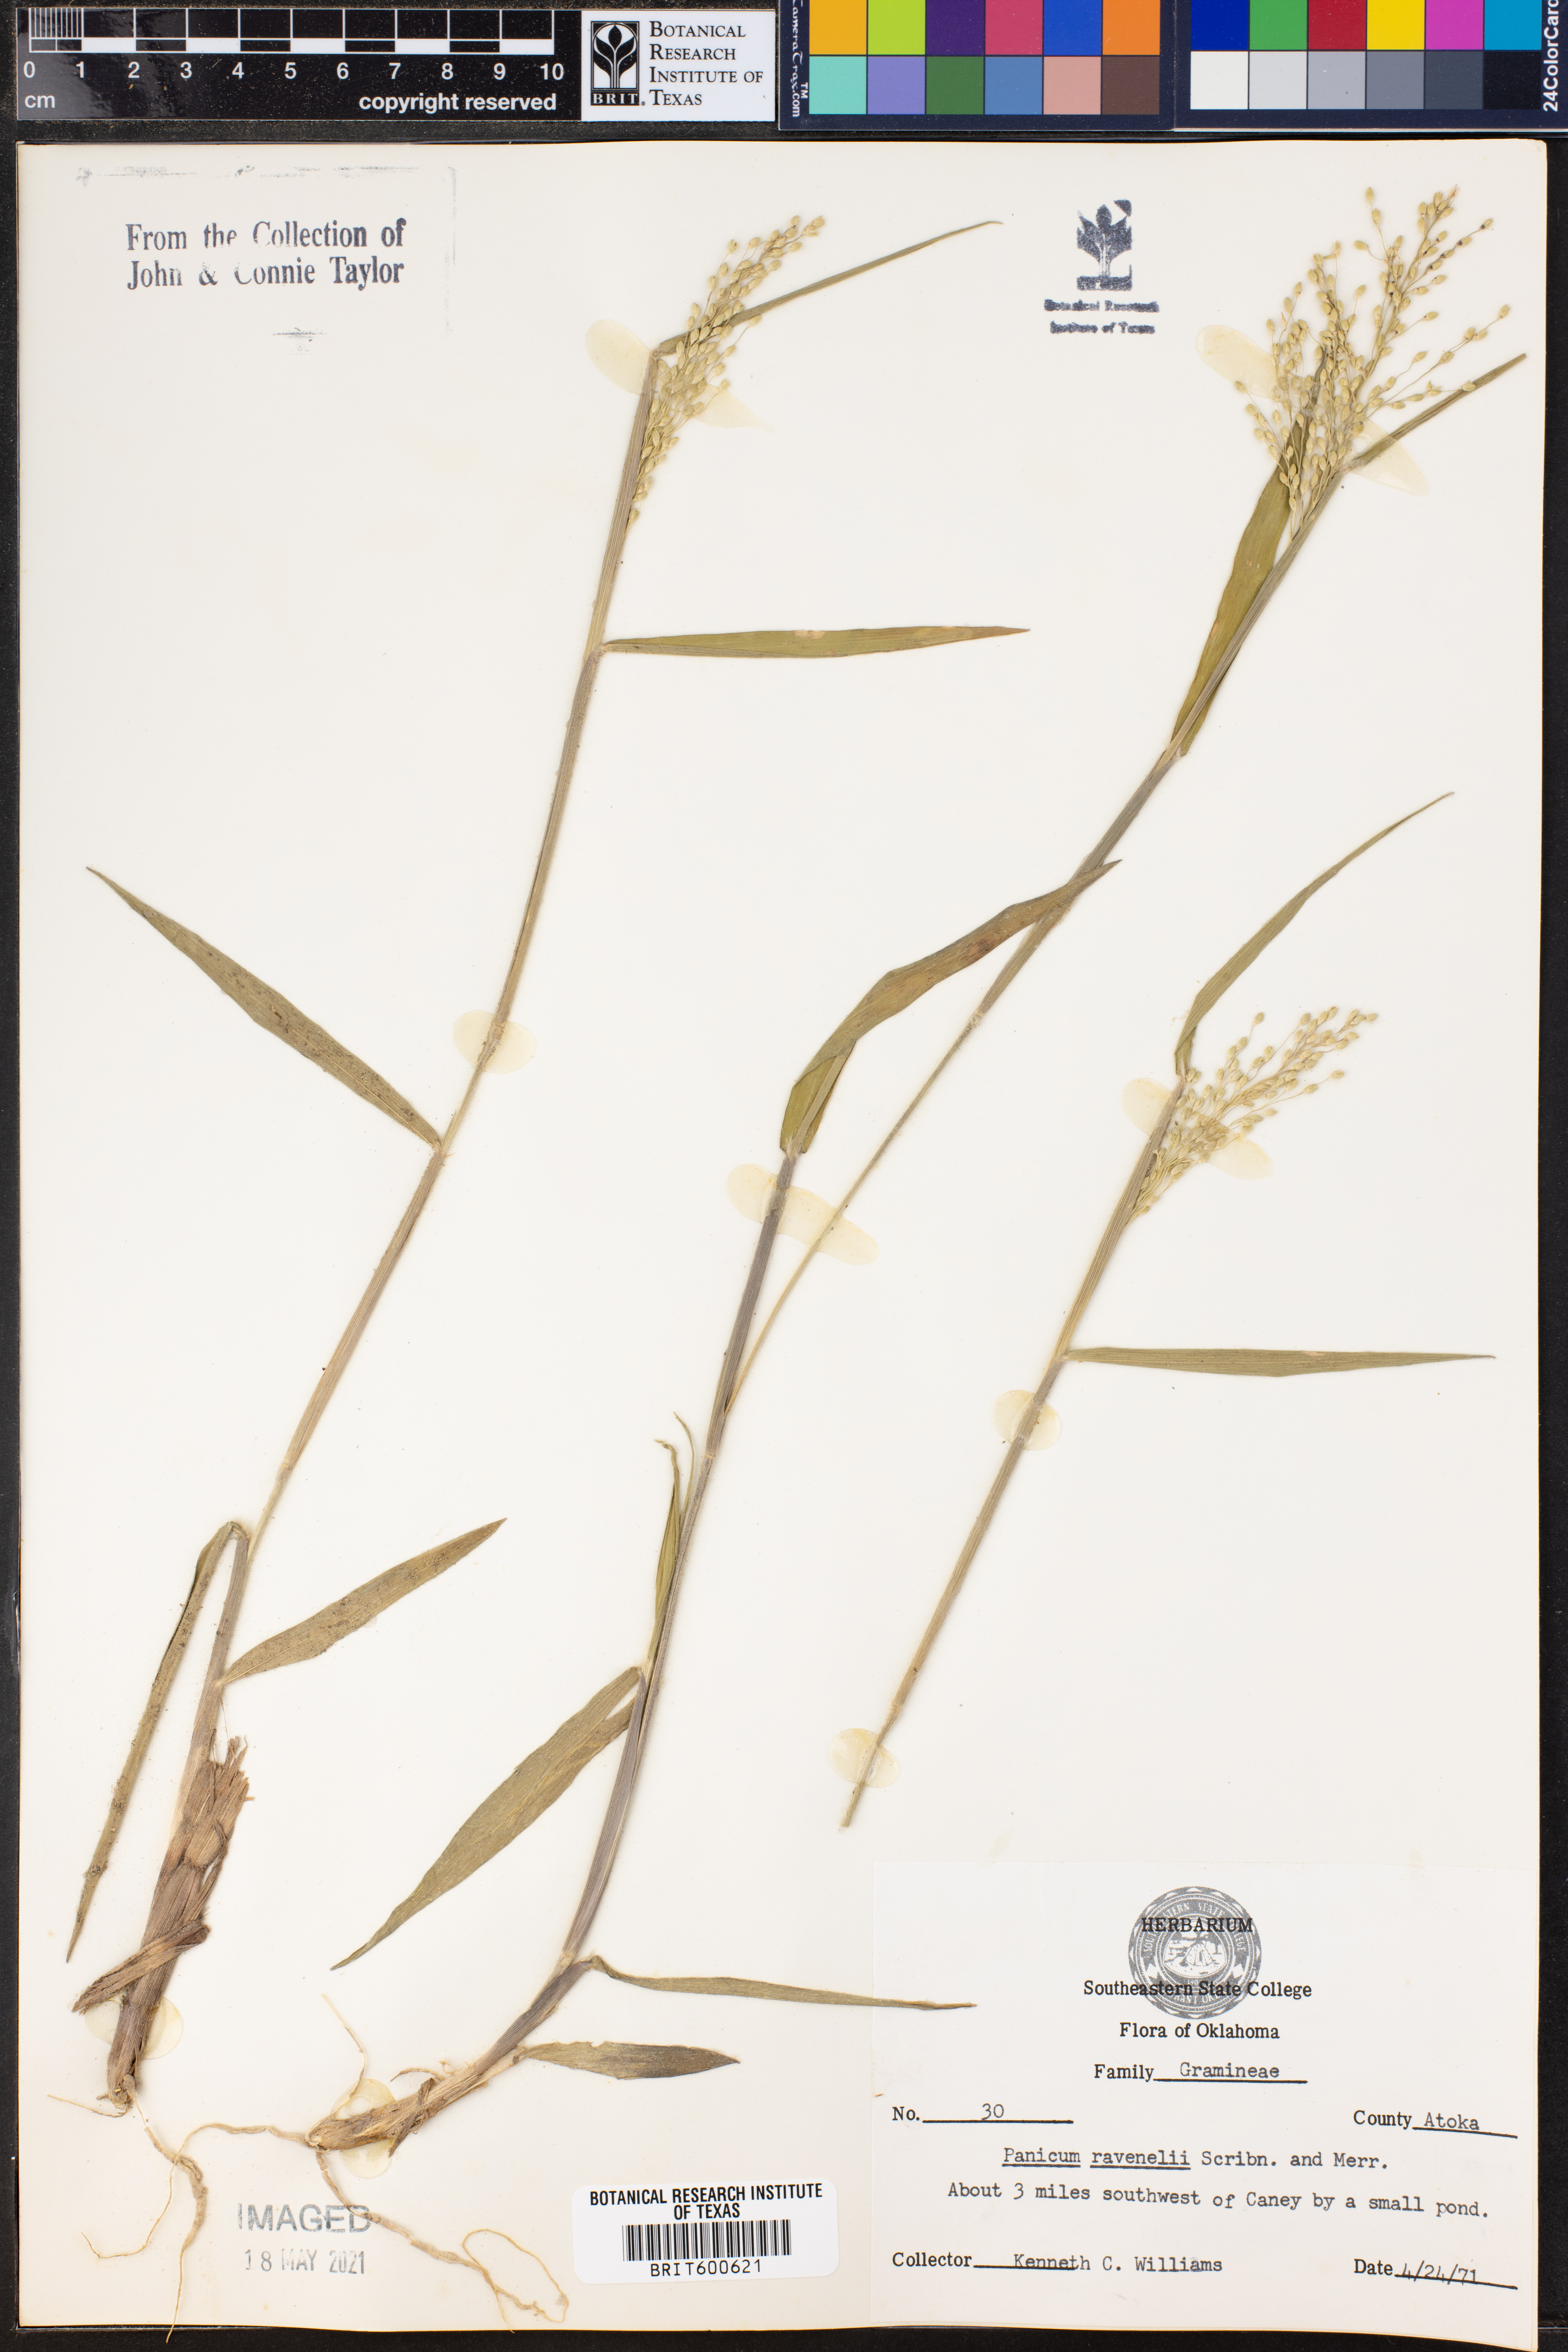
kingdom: Plantae
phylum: Tracheophyta
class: Liliopsida
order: Poales
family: Poaceae
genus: Dichanthelium
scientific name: Dichanthelium ravenelii
